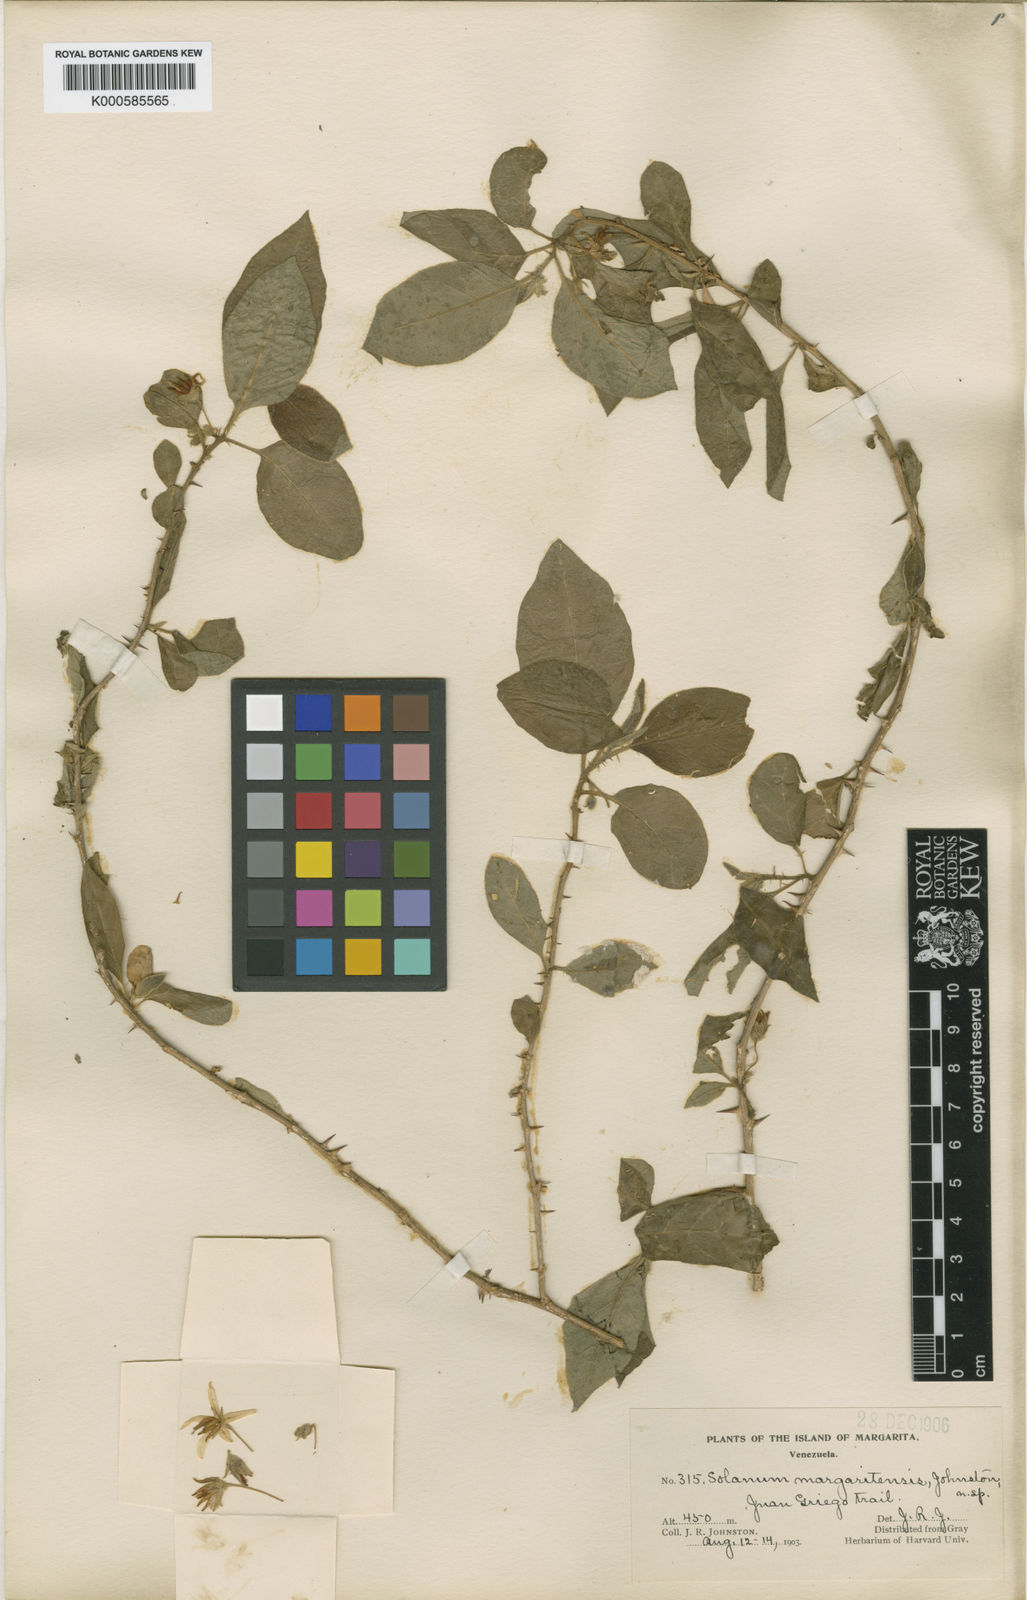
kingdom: Plantae
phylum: Tracheophyta
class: Magnoliopsida
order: Solanales
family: Solanaceae
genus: Solanum
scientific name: Solanum gardneri
